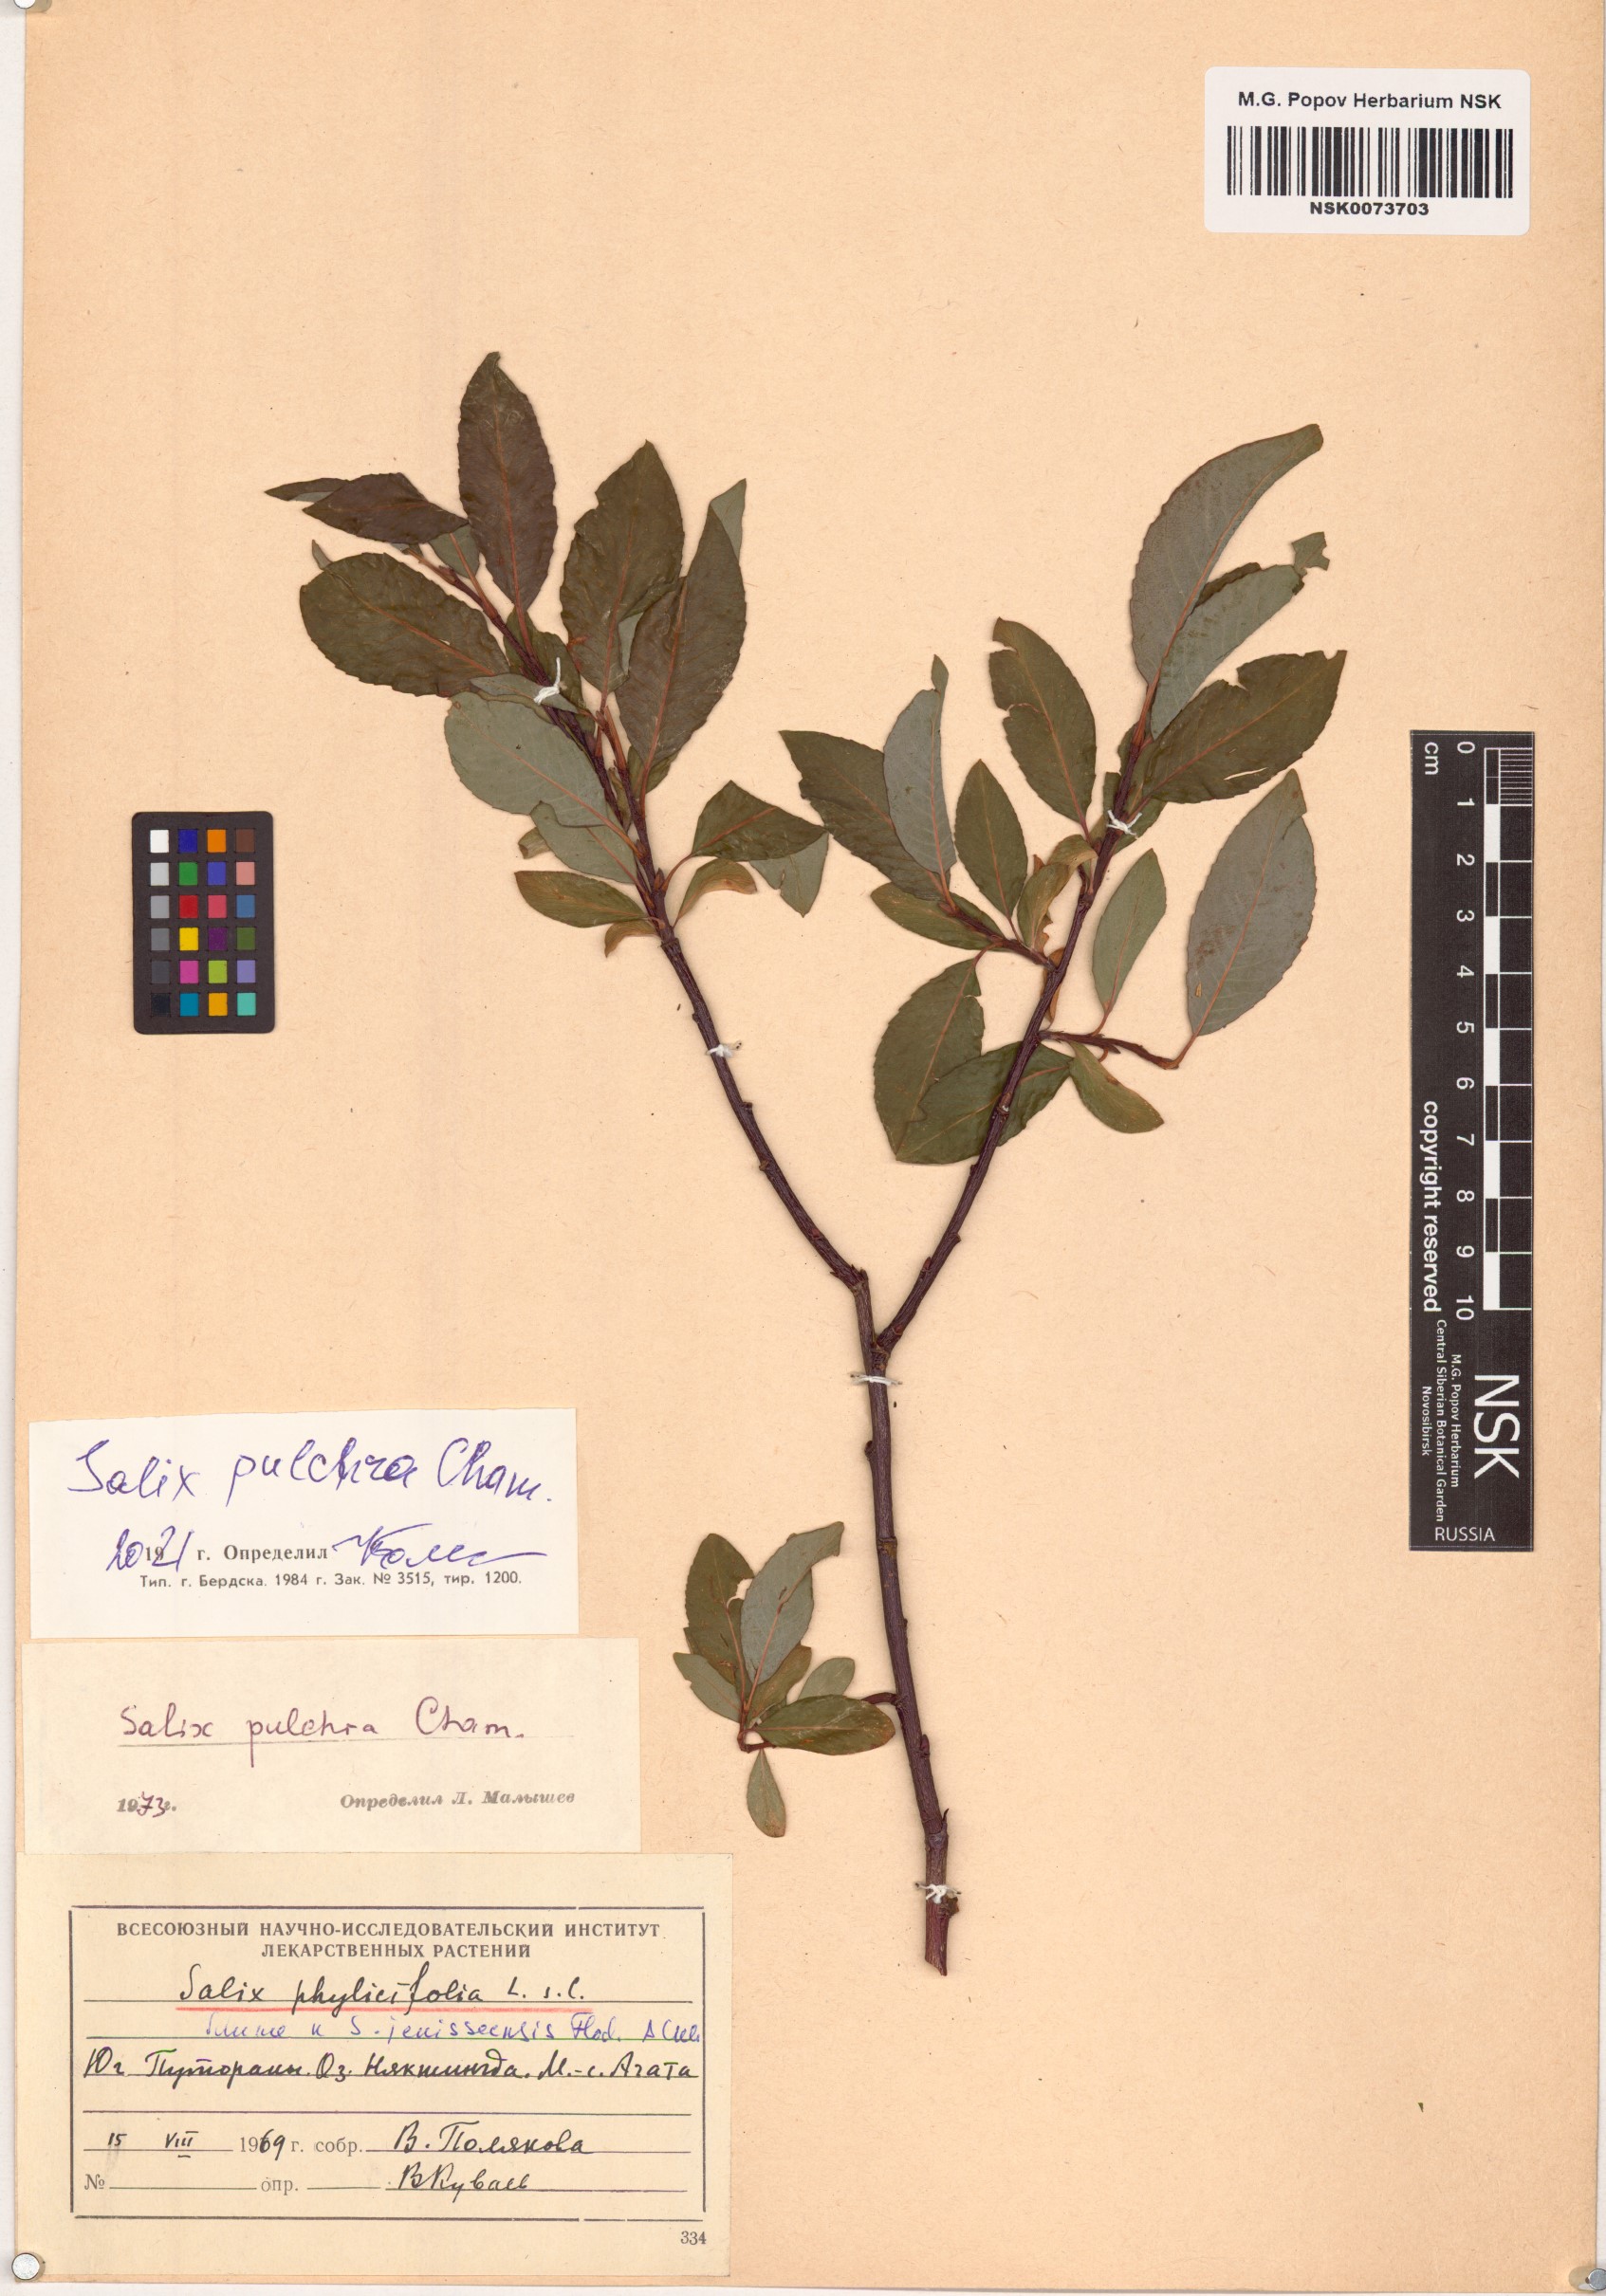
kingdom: Plantae
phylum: Tracheophyta
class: Magnoliopsida
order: Malpighiales
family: Salicaceae
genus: Salix
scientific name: Salix pulchra
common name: Diamond-leaved willow
